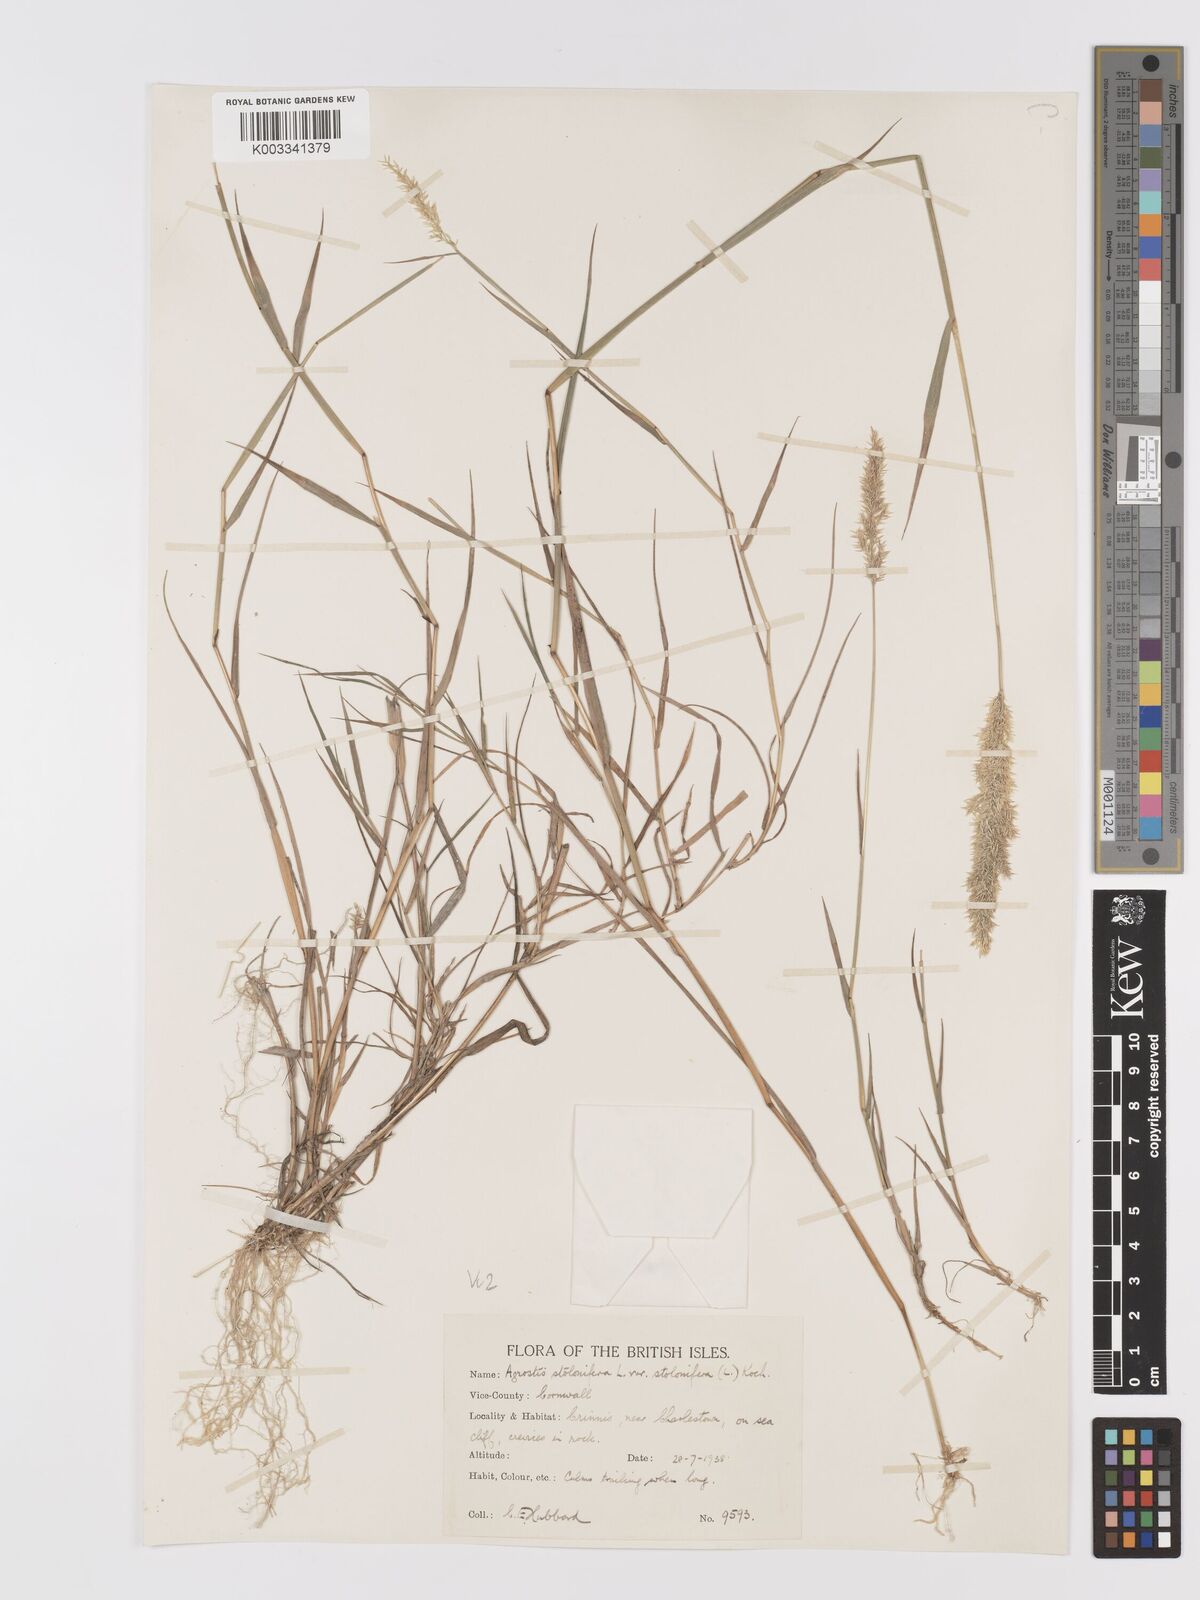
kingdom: Plantae
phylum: Tracheophyta
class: Liliopsida
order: Poales
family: Poaceae
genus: Agrostis
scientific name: Agrostis stolonifera
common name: Creeping bentgrass
